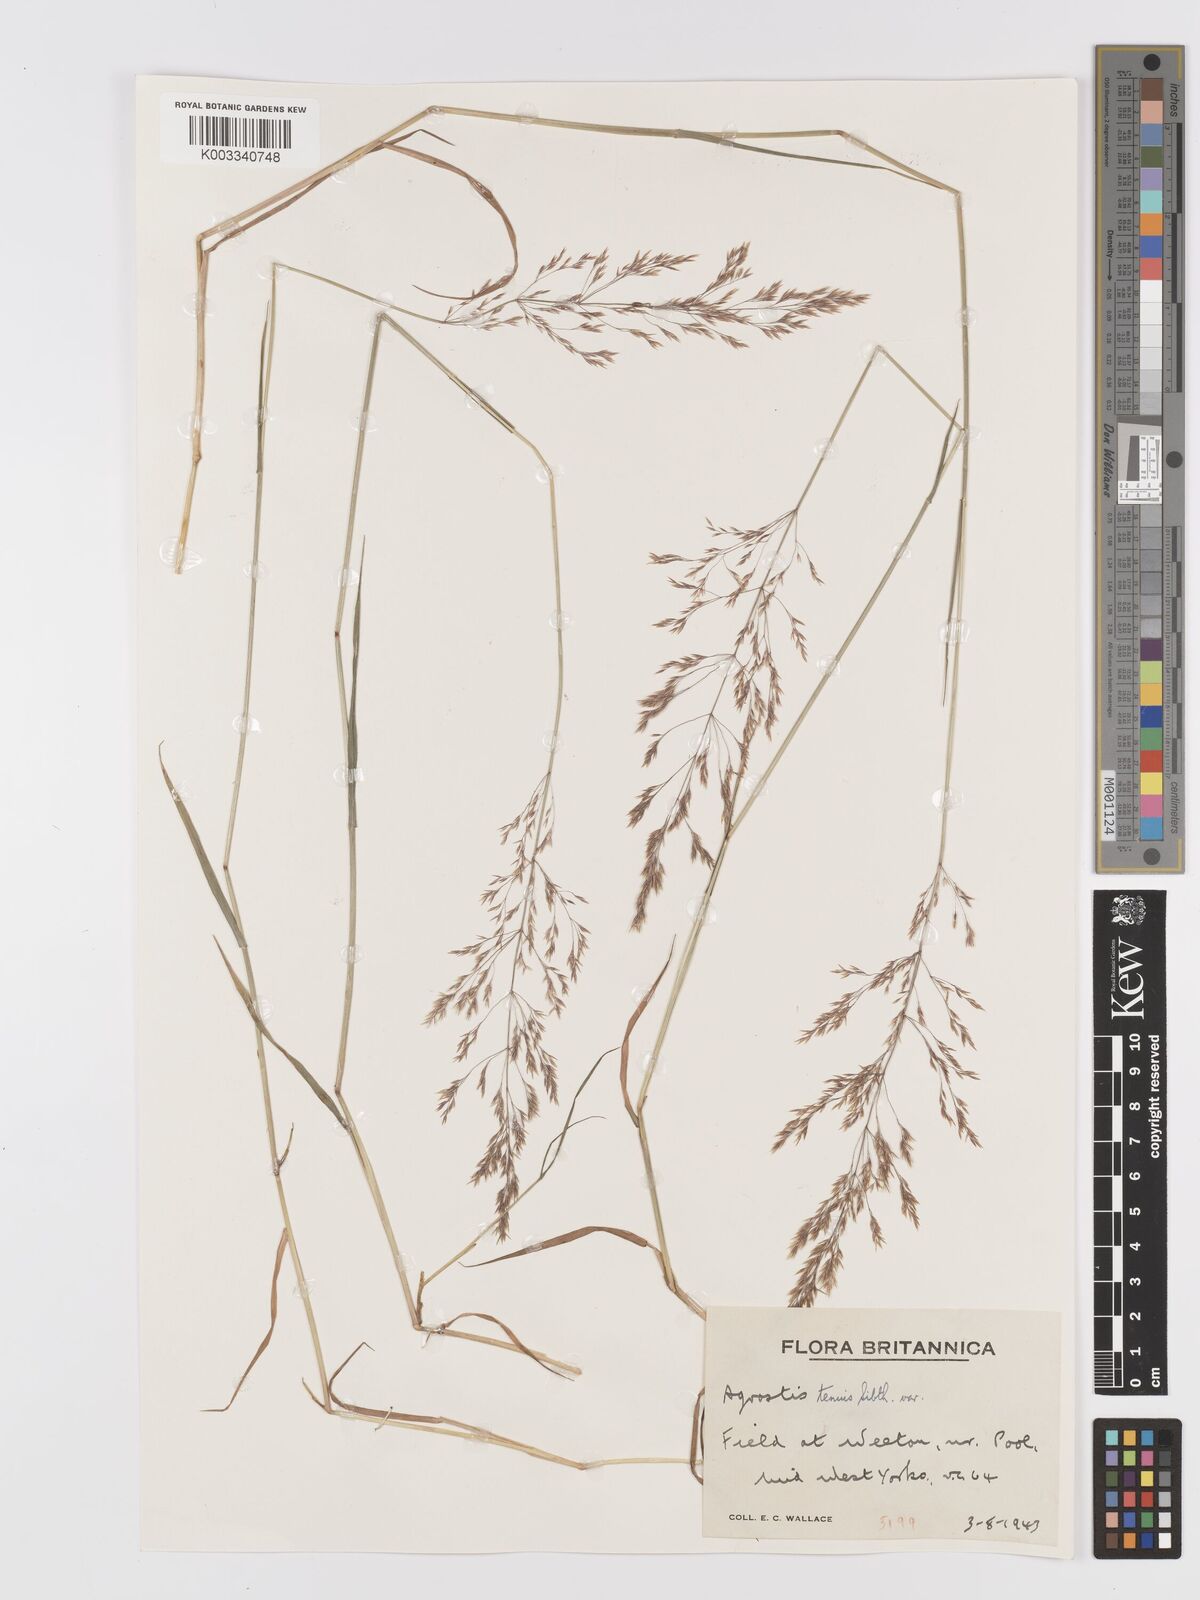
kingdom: Plantae
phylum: Tracheophyta
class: Liliopsida
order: Poales
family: Poaceae
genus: Agrostis
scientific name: Agrostis capillaris
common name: Colonial bentgrass
